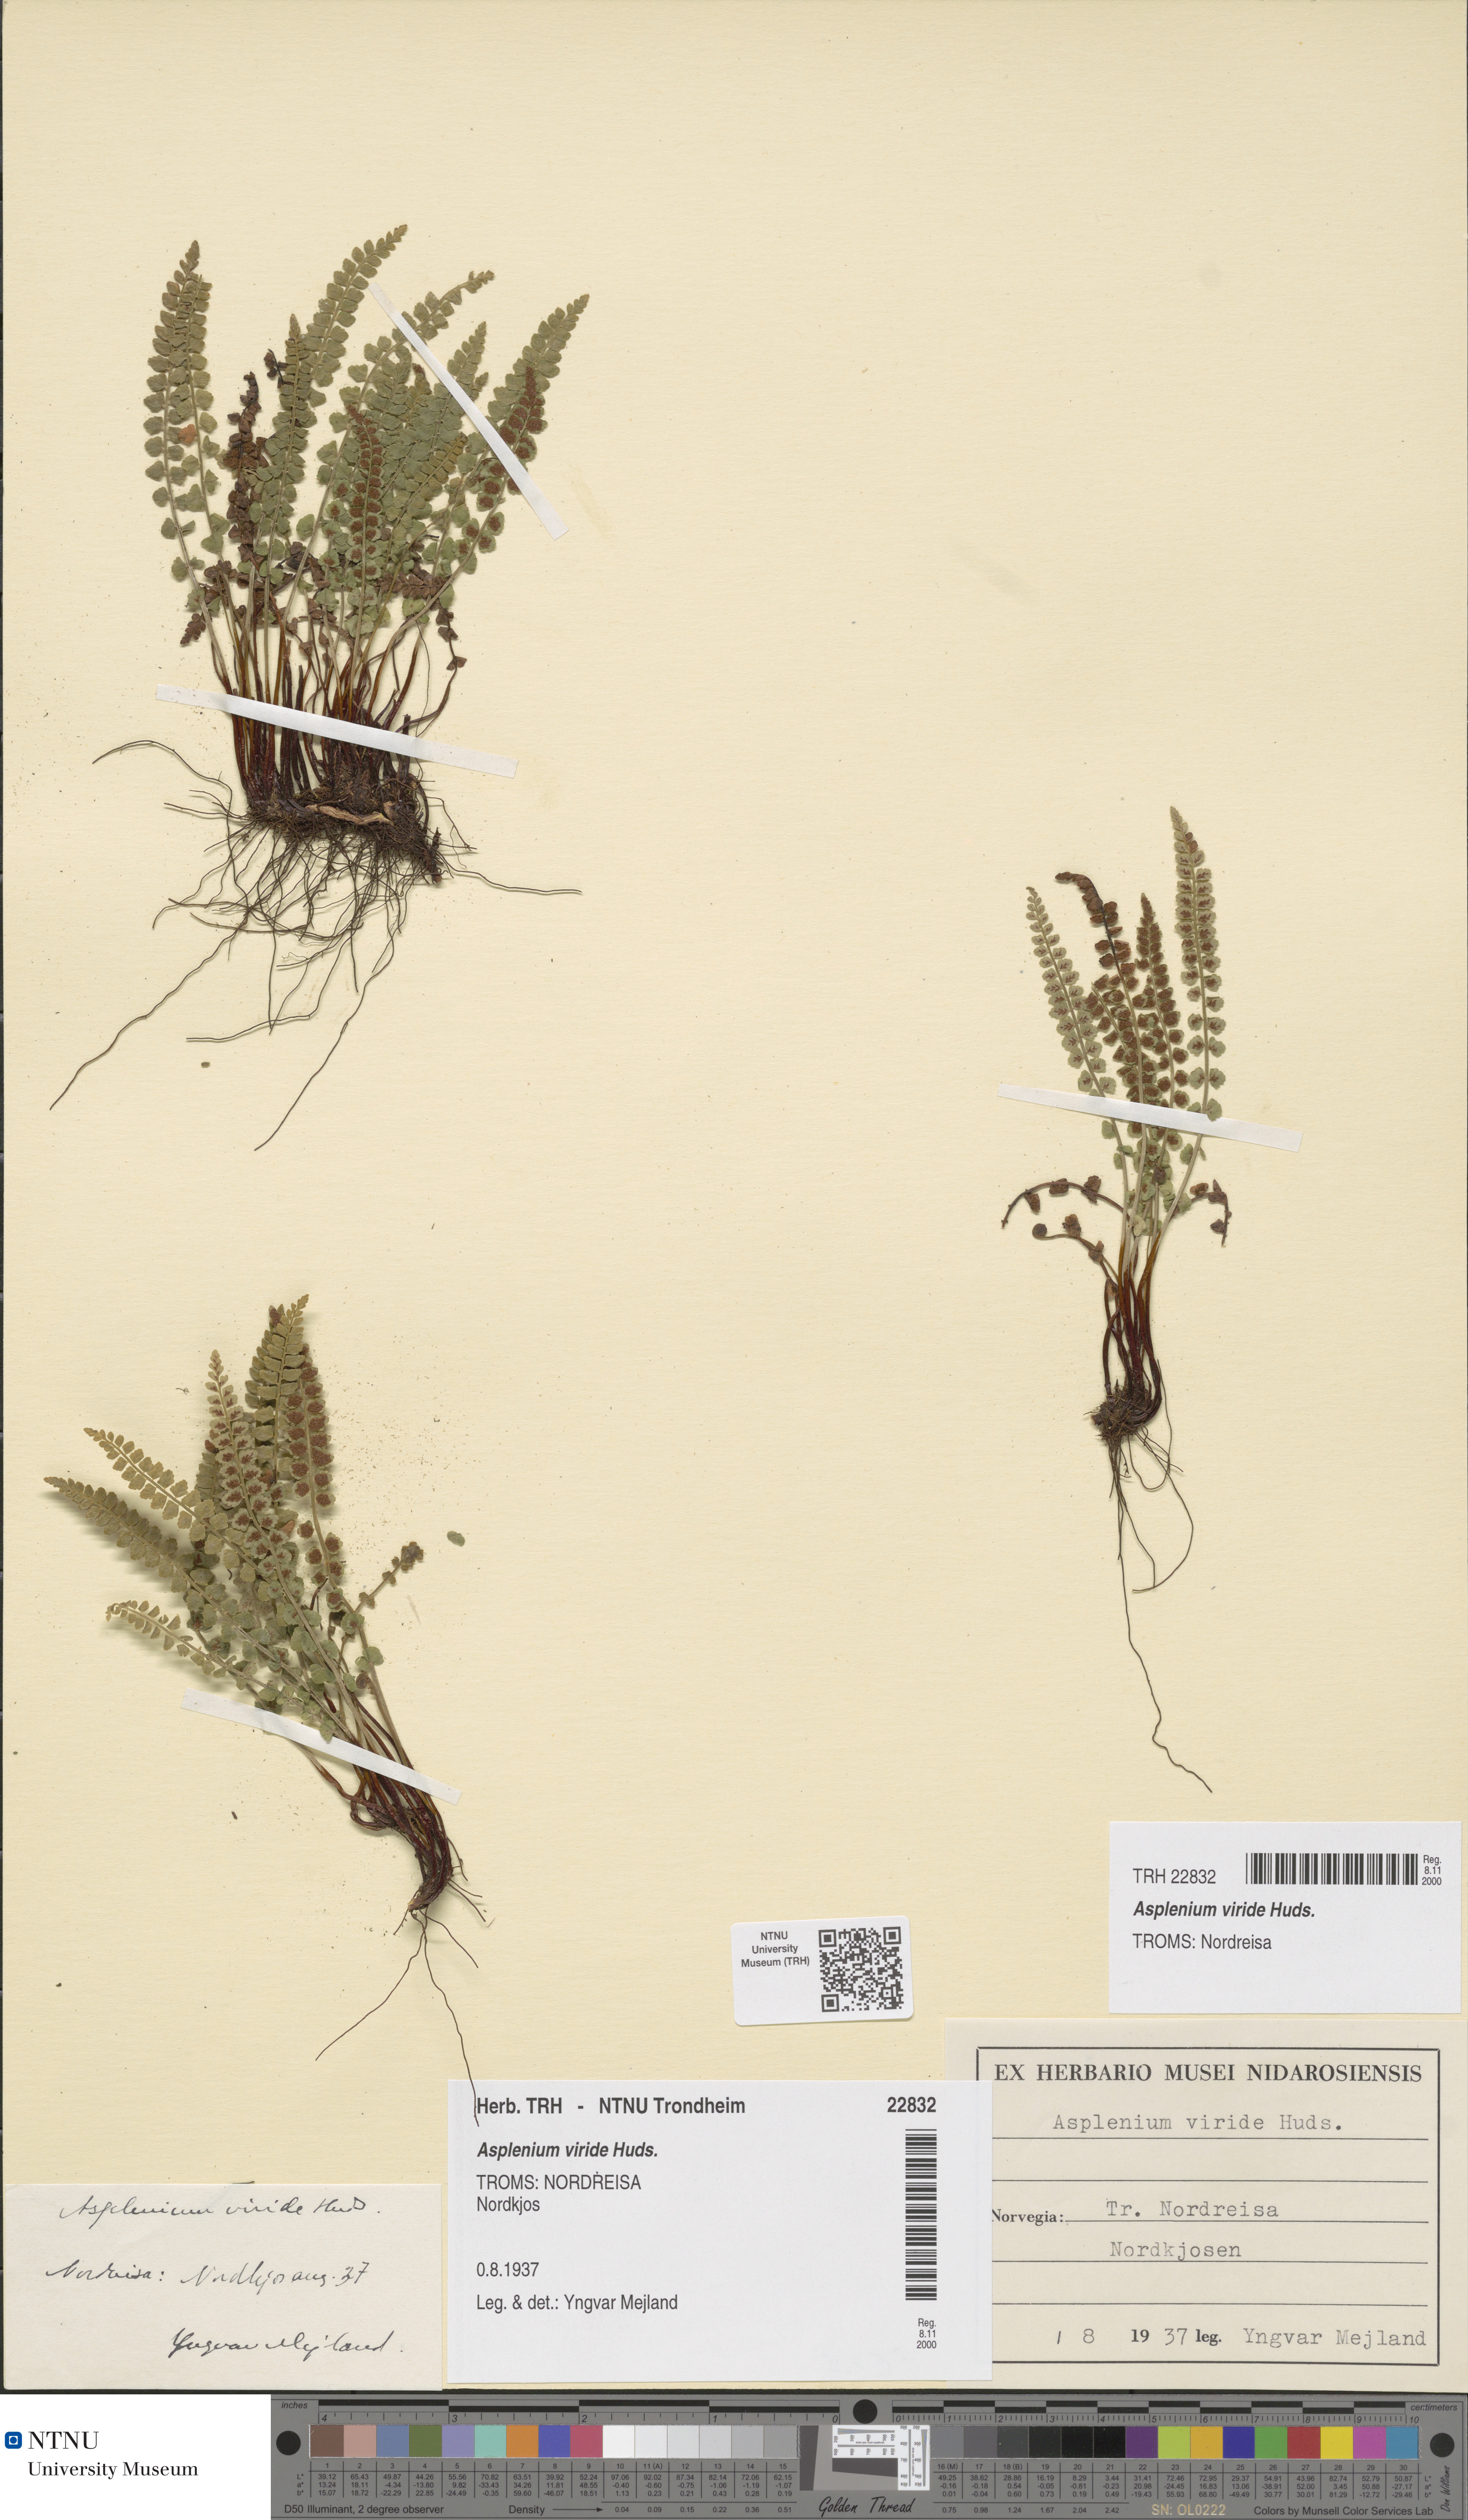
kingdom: Plantae
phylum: Tracheophyta
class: Polypodiopsida
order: Polypodiales
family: Aspleniaceae
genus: Asplenium
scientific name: Asplenium viride
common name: Green spleenwort
